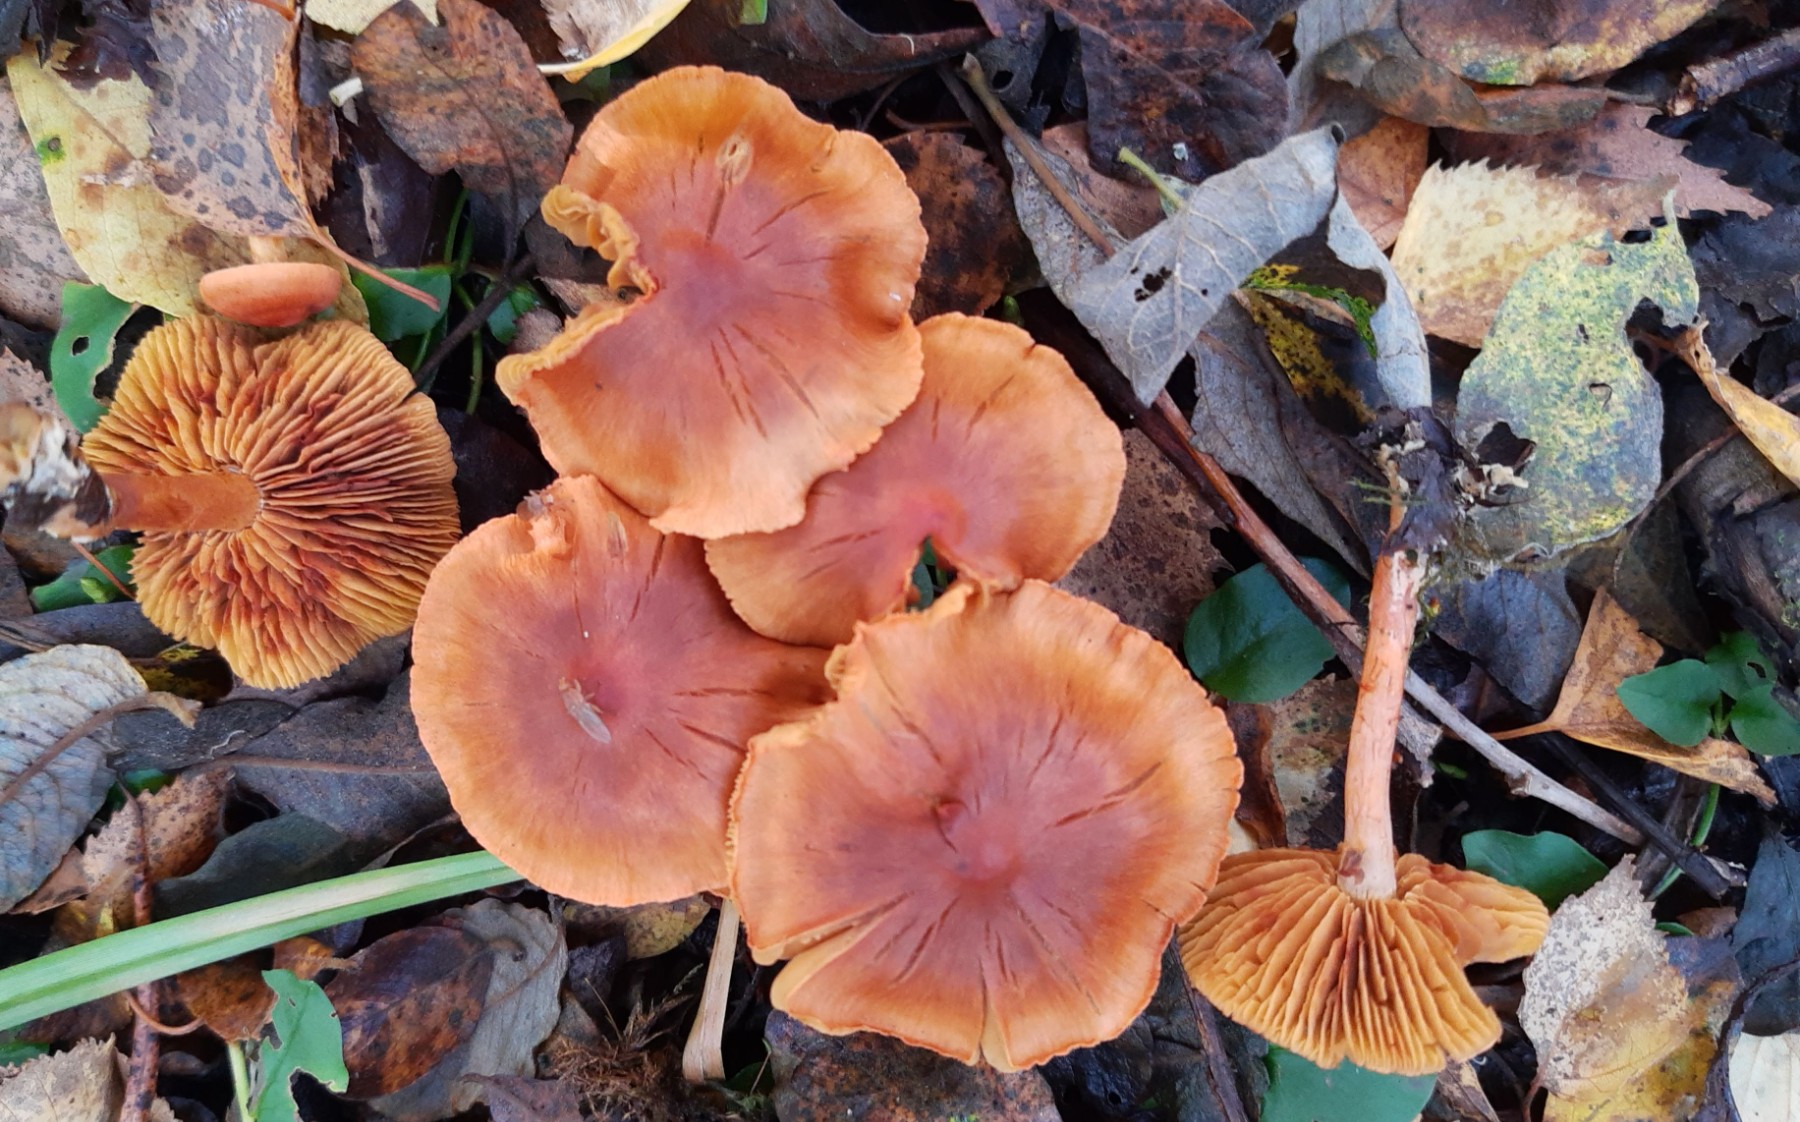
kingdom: Fungi
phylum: Basidiomycota
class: Agaricomycetes
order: Agaricales
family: Cortinariaceae
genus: Cortinarius
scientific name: Cortinarius uliginosus
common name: mose-slørhat
